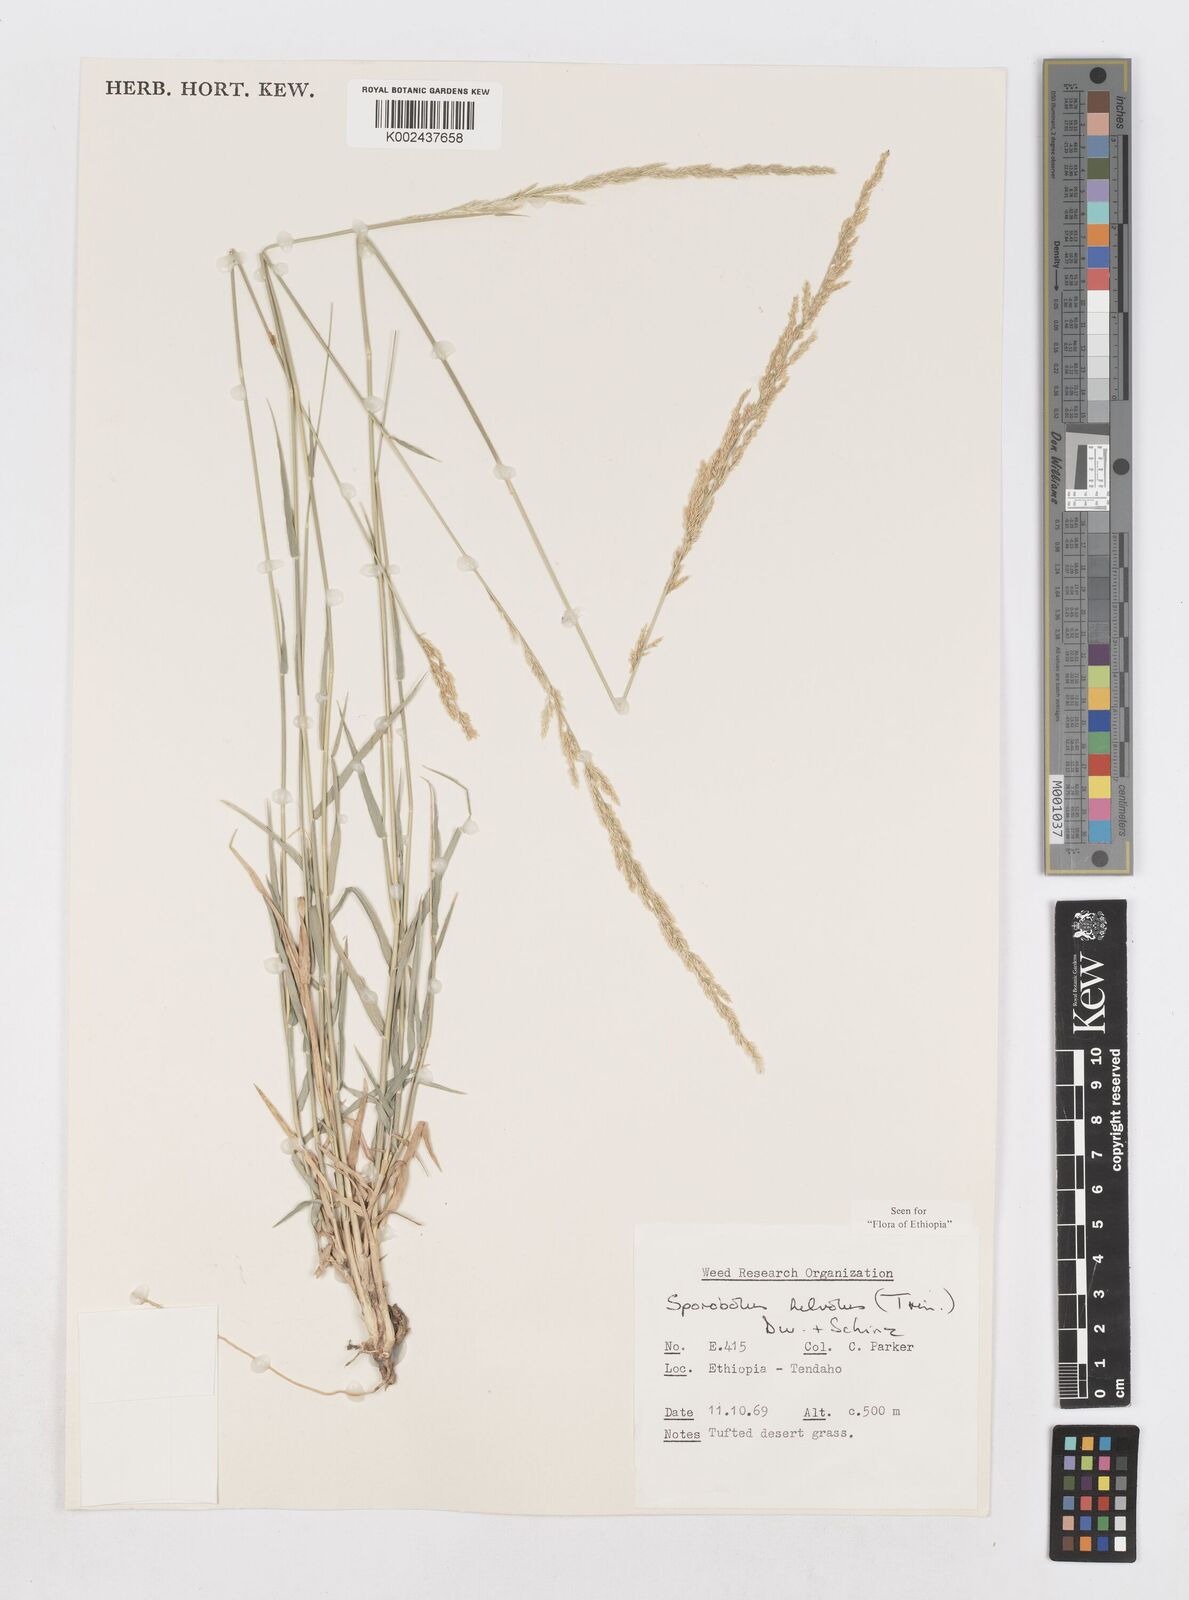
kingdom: Plantae
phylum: Tracheophyta
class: Liliopsida
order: Poales
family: Poaceae
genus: Sporobolus
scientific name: Sporobolus helvolus
